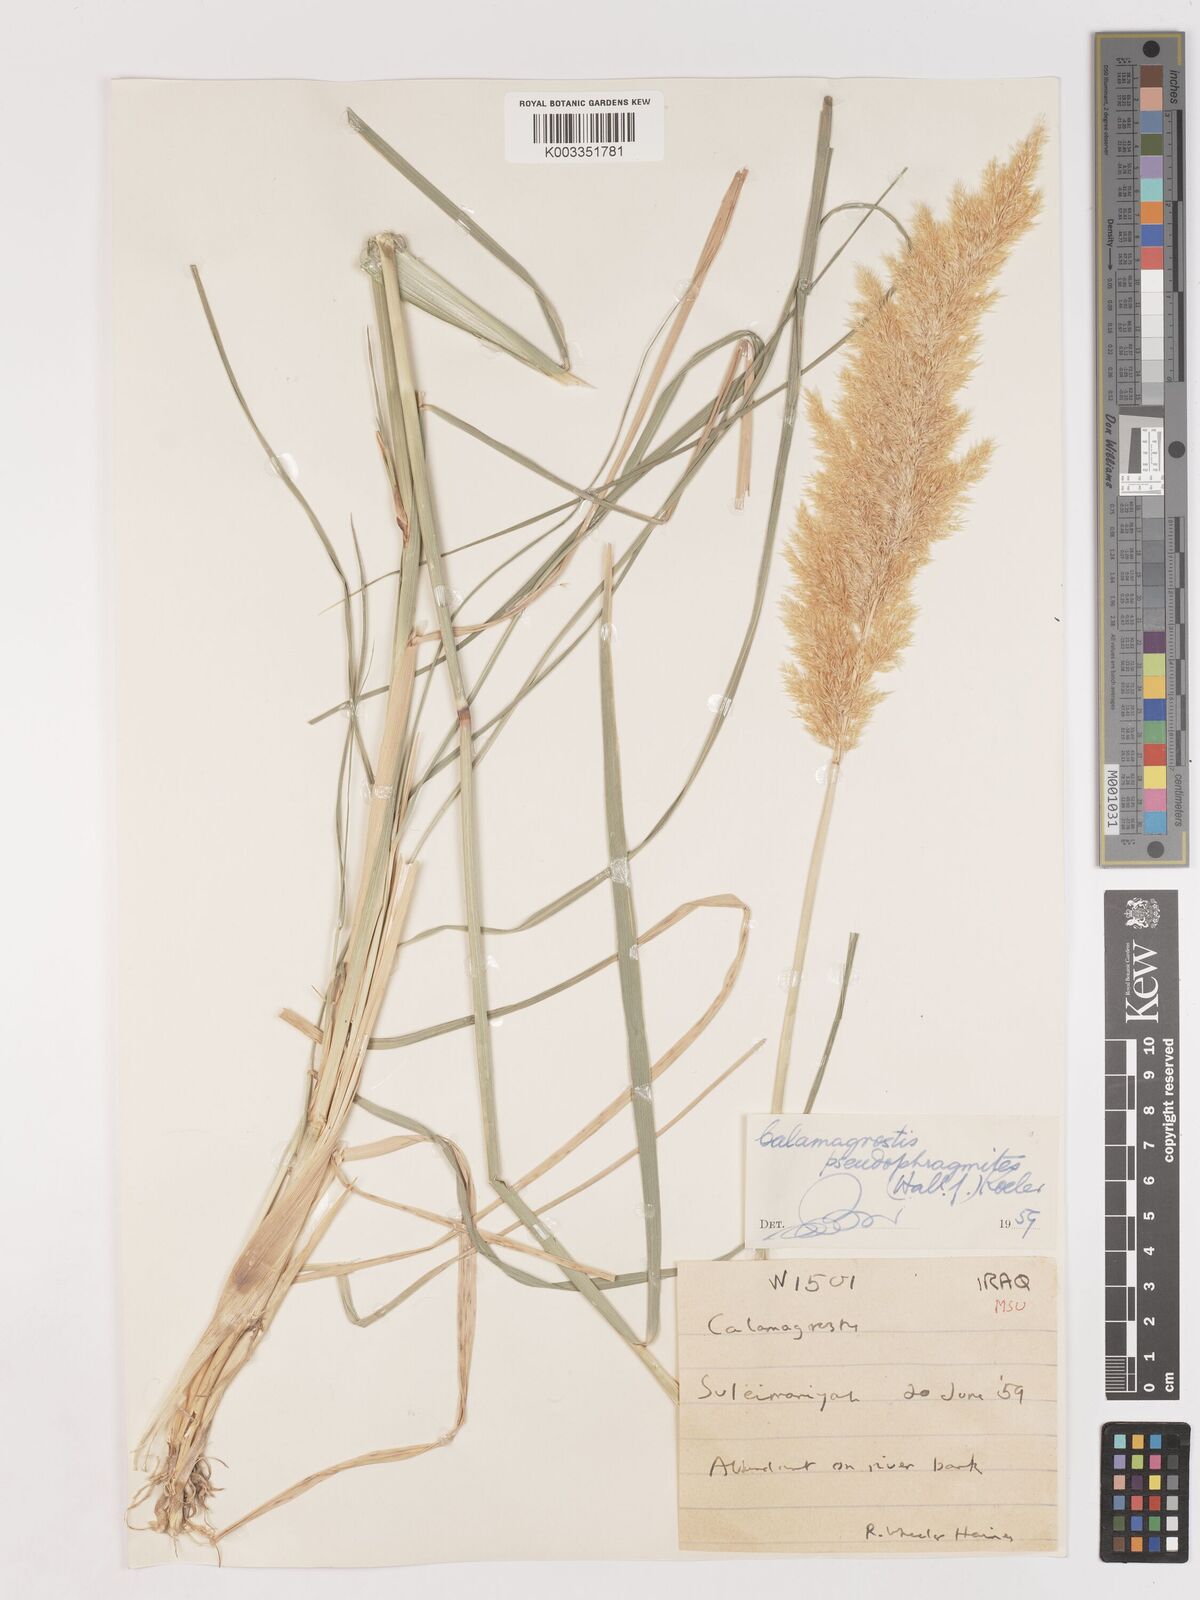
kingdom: Plantae
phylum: Tracheophyta
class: Liliopsida
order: Poales
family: Poaceae
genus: Calamagrostis
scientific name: Calamagrostis pseudophragmites
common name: Coastal small-reed
